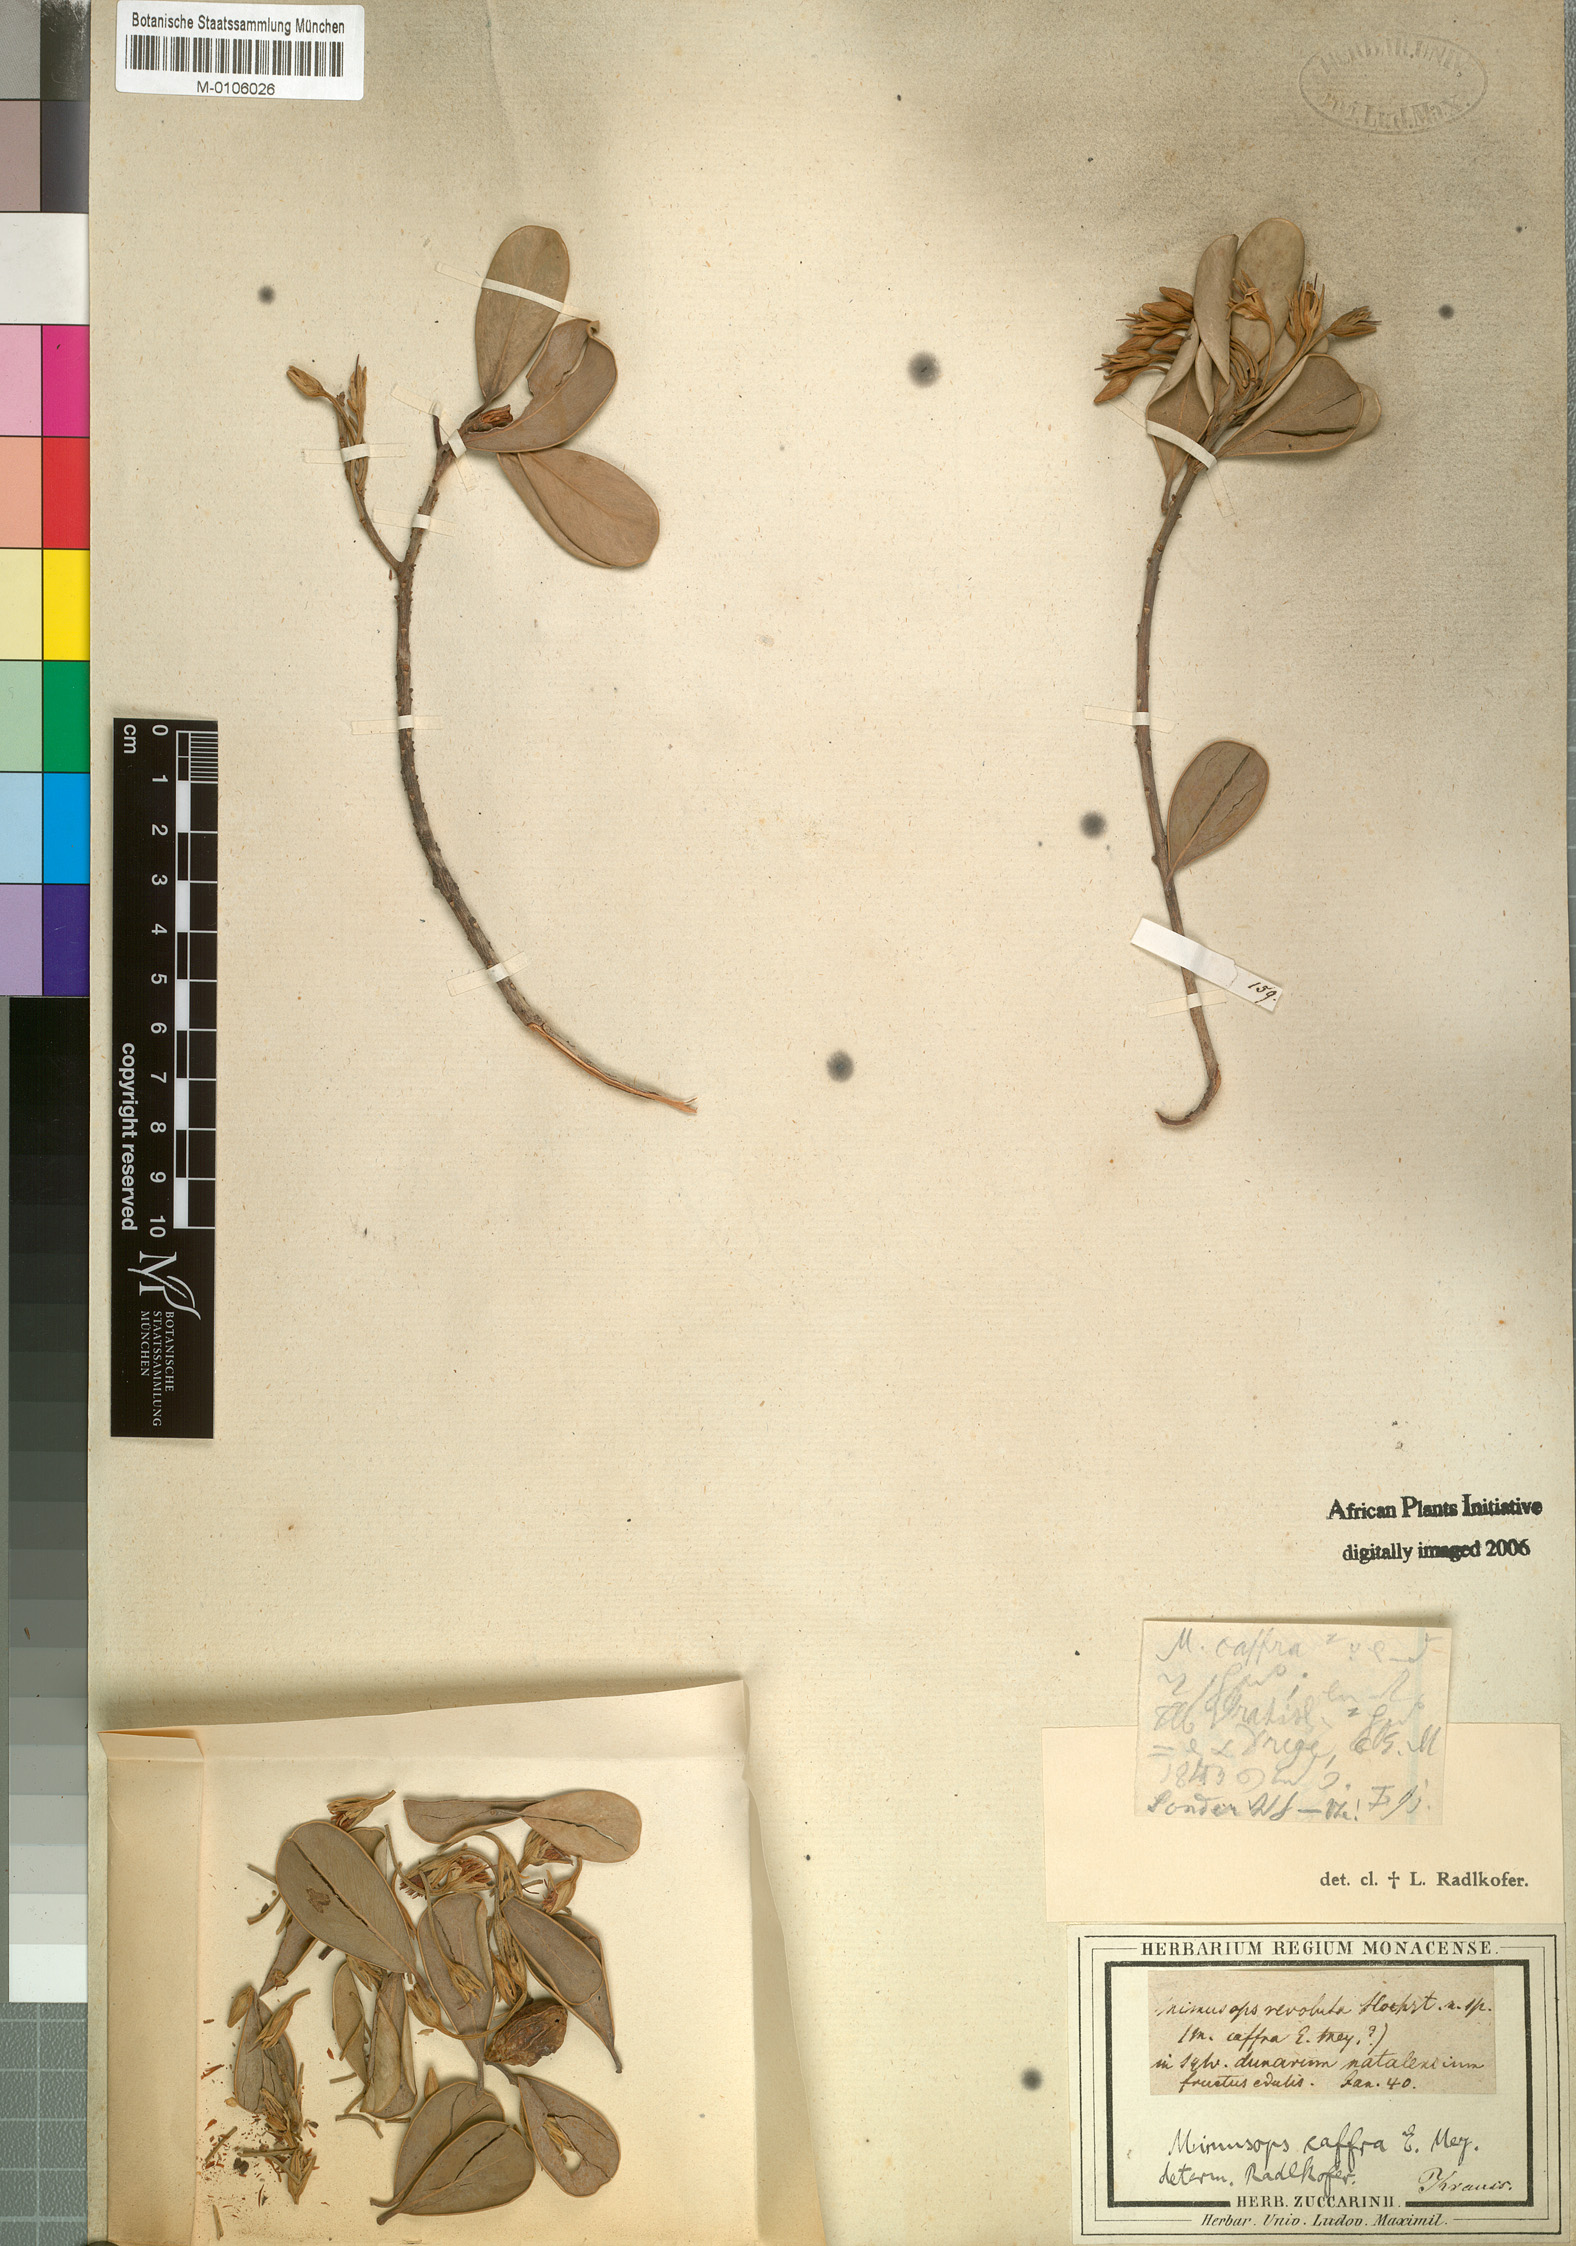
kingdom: Plantae
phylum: Tracheophyta
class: Magnoliopsida
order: Ericales
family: Sapotaceae
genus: Mimusops
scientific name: Mimusops caffra
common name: Coastal red milkwood
